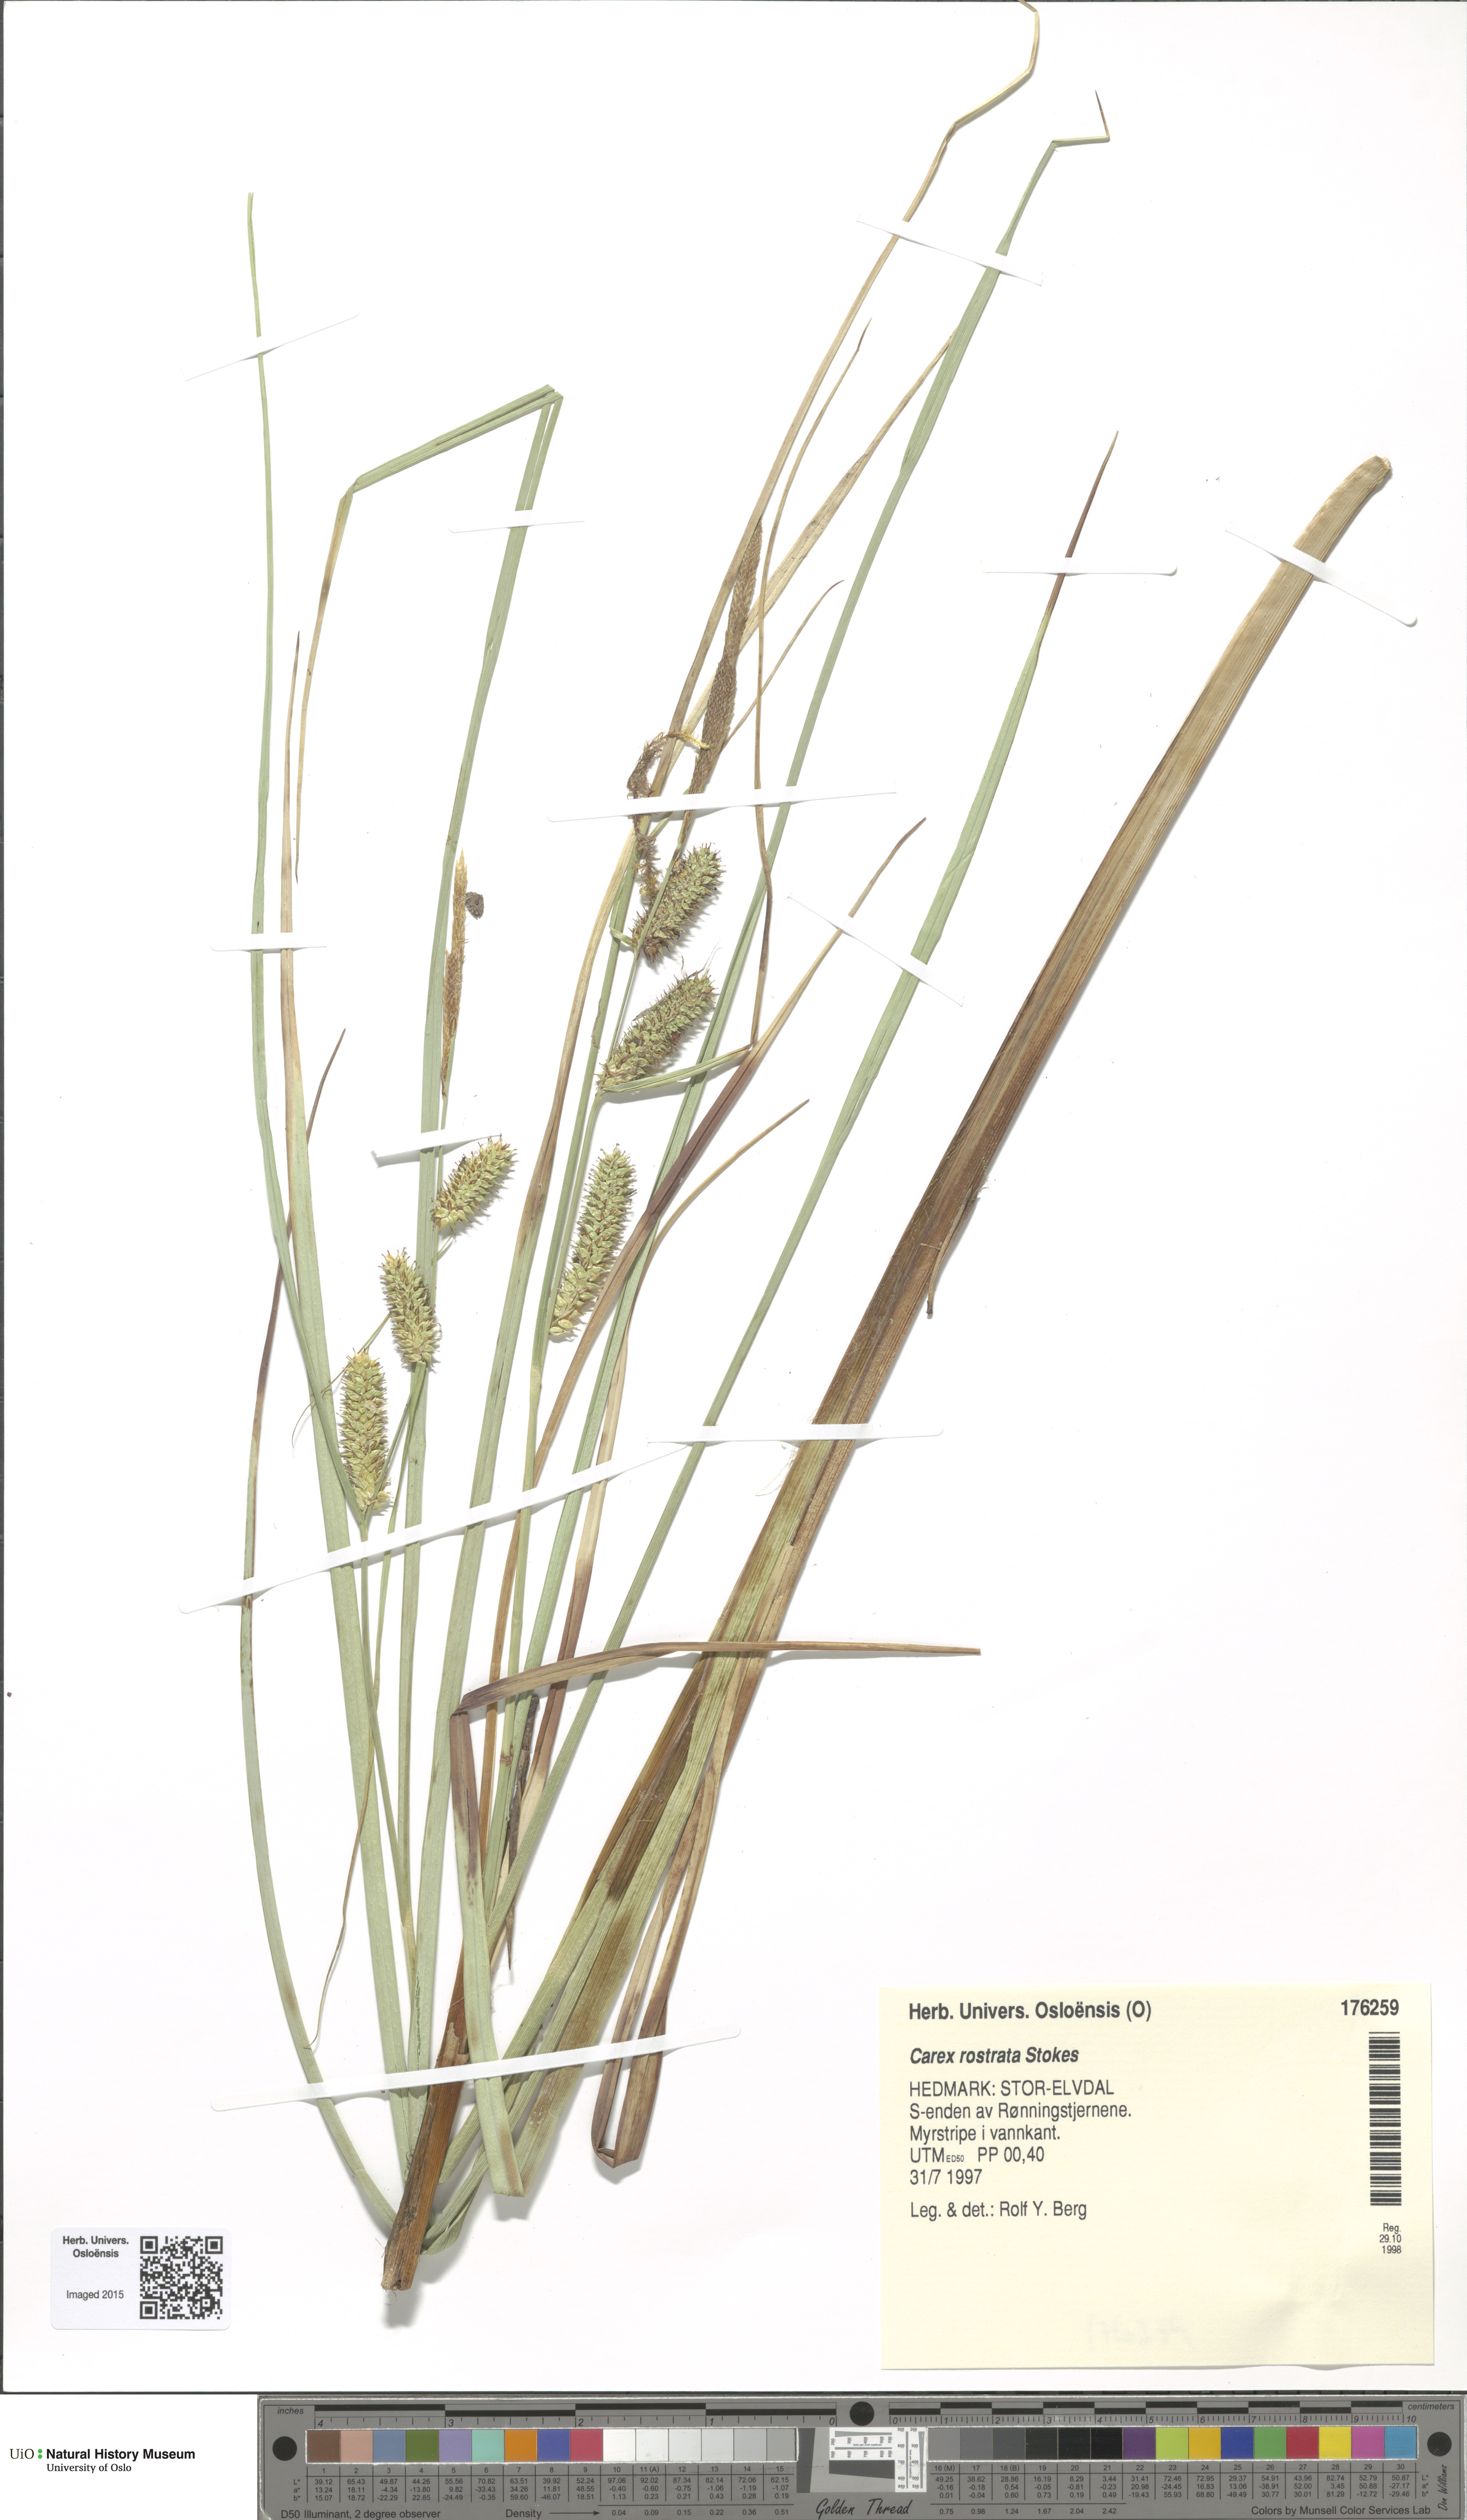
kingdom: Plantae
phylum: Tracheophyta
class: Liliopsida
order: Poales
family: Cyperaceae
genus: Carex
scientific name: Carex rostrata
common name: Bottle sedge
